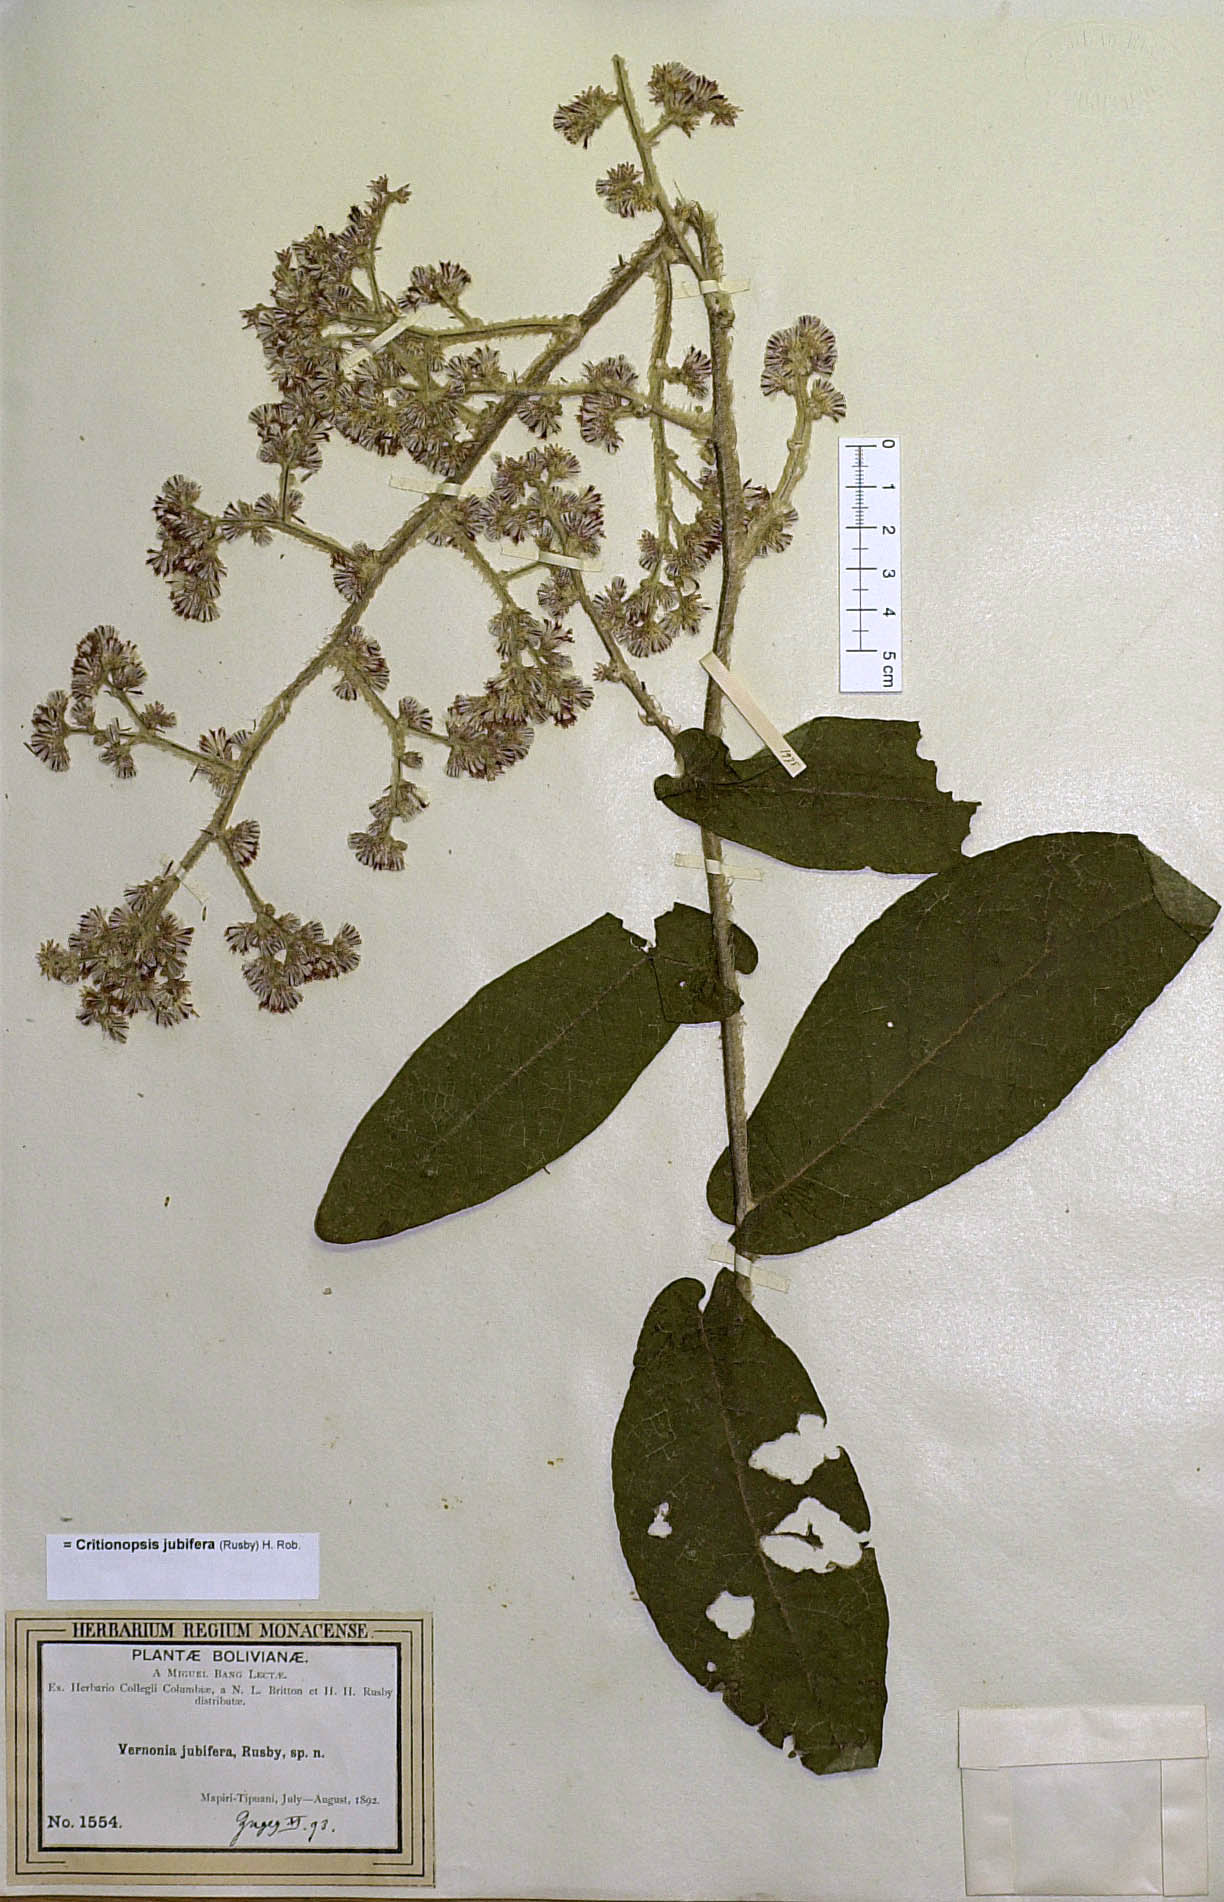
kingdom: Plantae
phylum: Tracheophyta
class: Magnoliopsida
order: Asterales
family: Asteraceae
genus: Critoniopsis
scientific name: Critoniopsis jubifera
